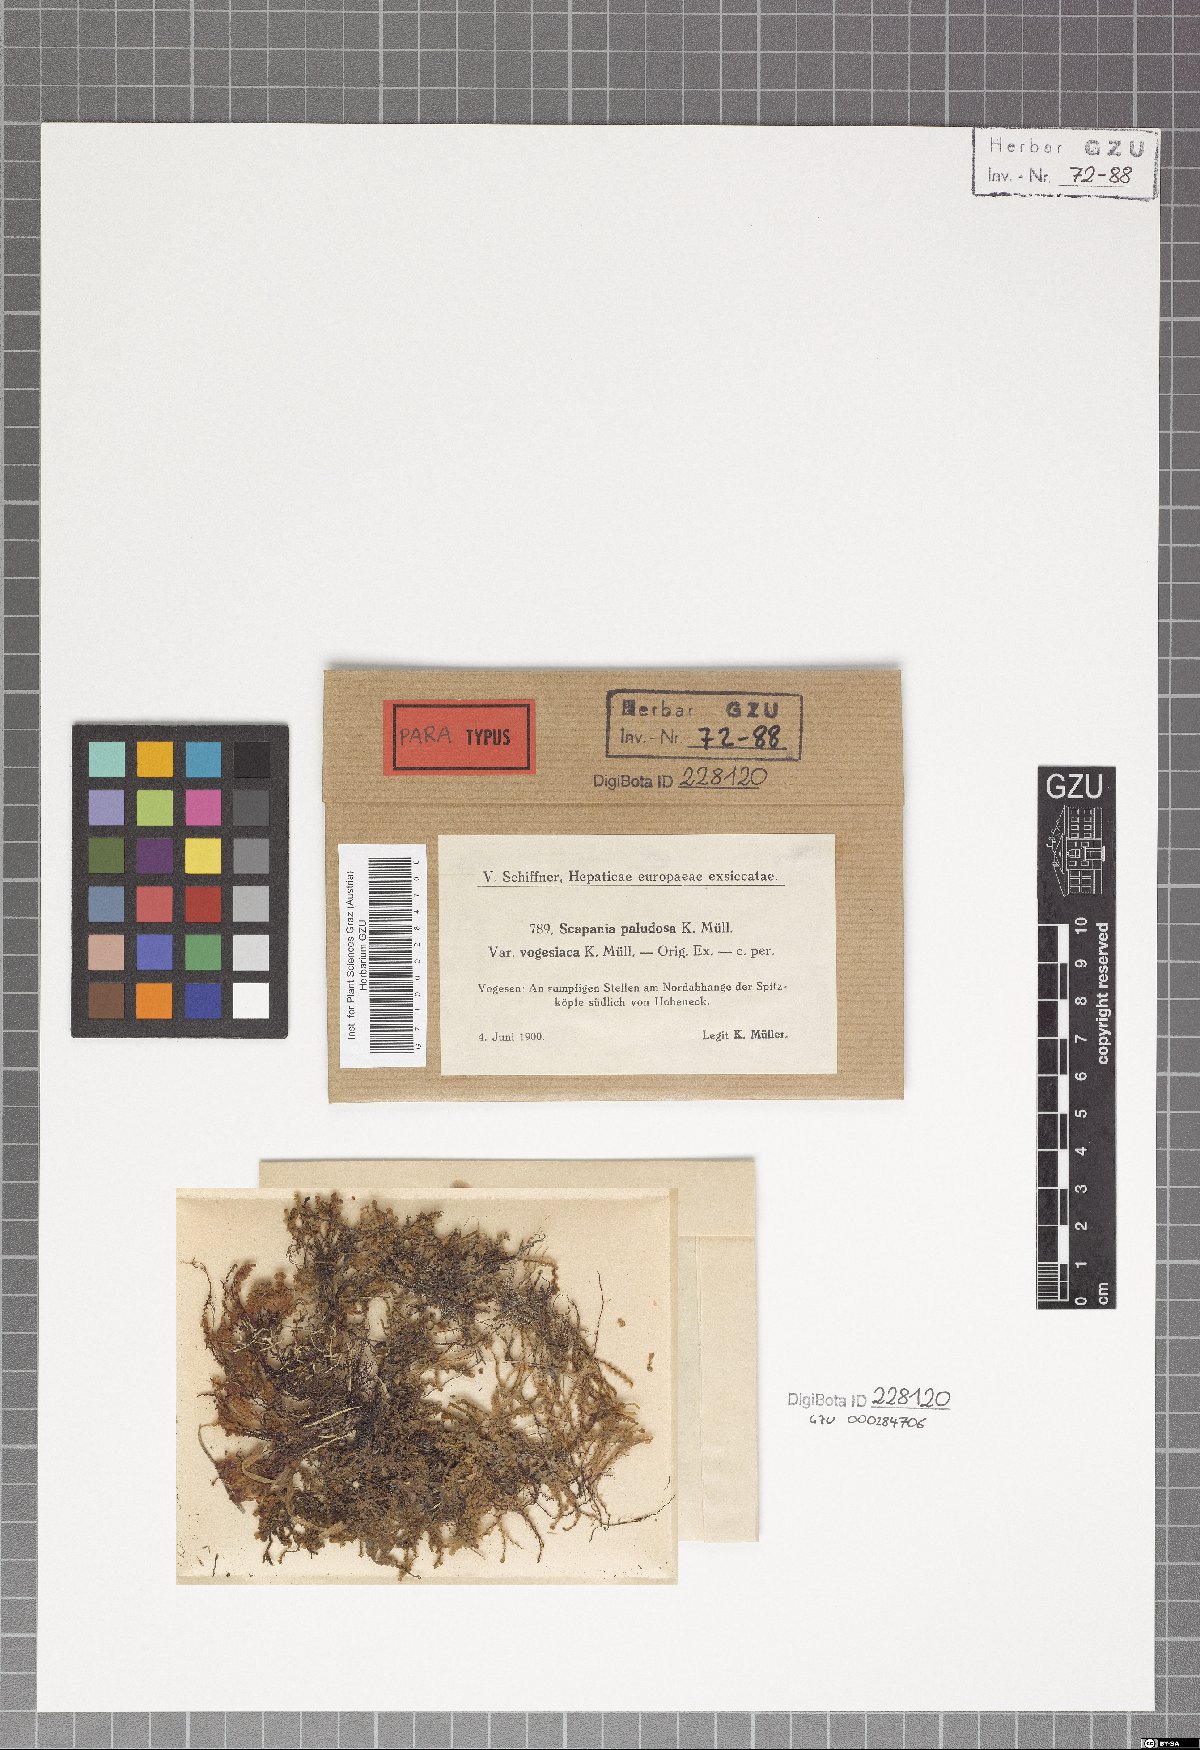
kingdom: Plantae
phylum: Marchantiophyta
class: Jungermanniopsida
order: Jungermanniales
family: Scapaniaceae
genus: Scapania
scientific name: Scapania paludosa
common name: Floppy earwort
